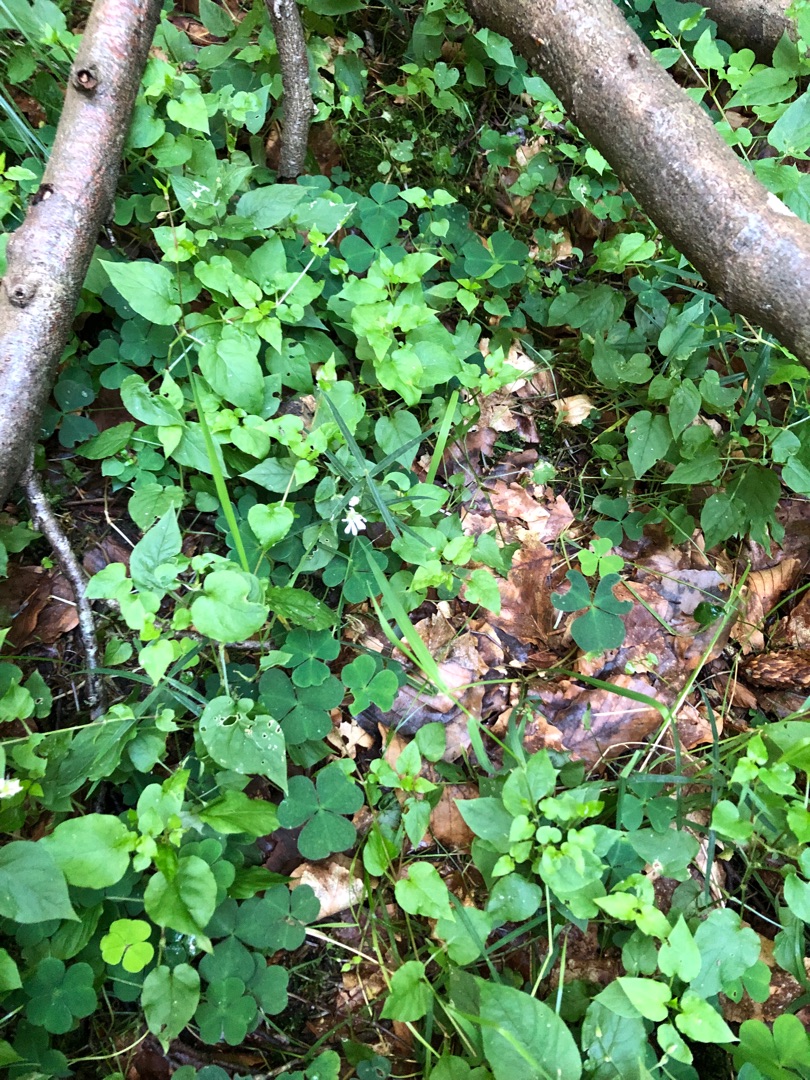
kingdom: Plantae
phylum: Tracheophyta
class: Magnoliopsida
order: Caryophyllales
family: Caryophyllaceae
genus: Stellaria
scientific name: Stellaria glochidisperma
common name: Sydlig lund-fladstjerne
